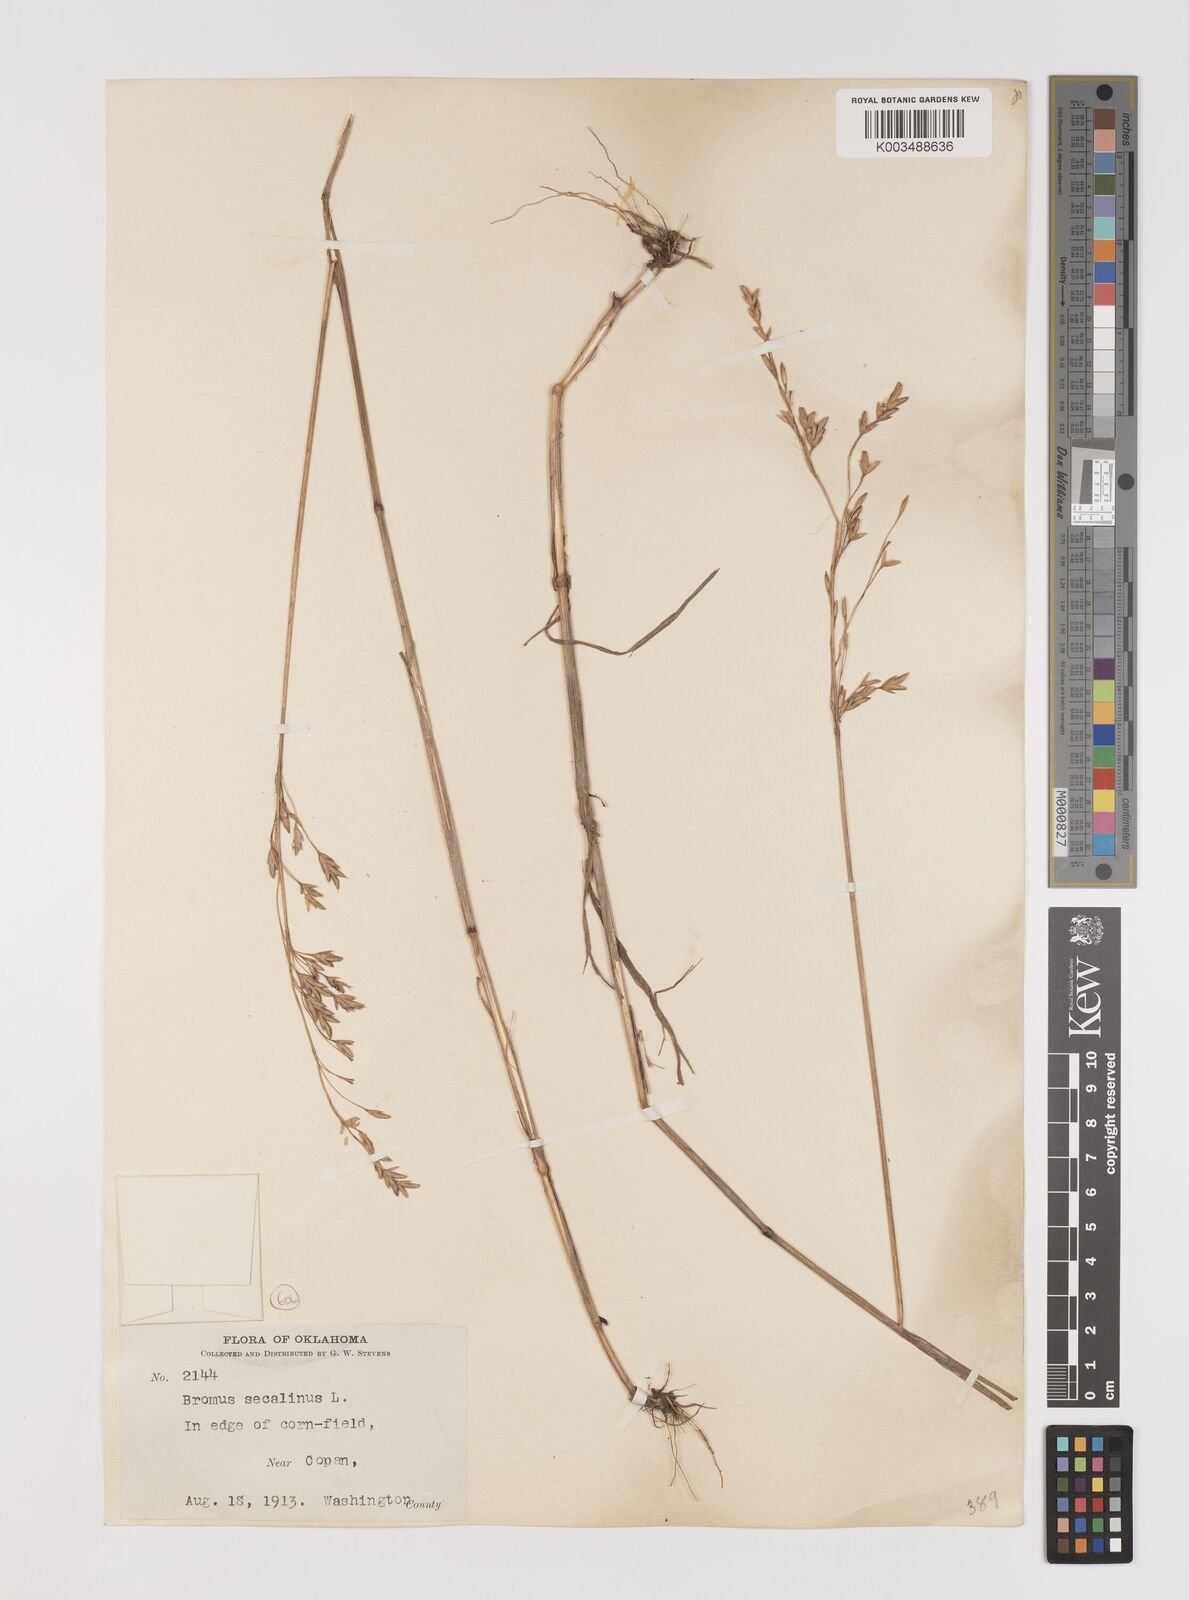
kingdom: Plantae
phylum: Tracheophyta
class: Liliopsida
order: Poales
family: Poaceae
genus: Bromus
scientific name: Bromus secalinus
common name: Rye brome
